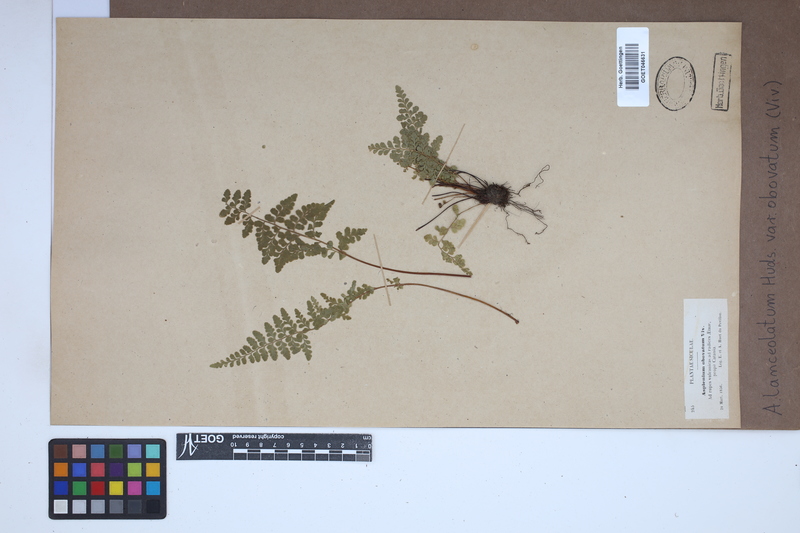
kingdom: Plantae
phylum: Tracheophyta
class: Polypodiopsida
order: Polypodiales
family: Aspleniaceae
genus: Asplenium
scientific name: Asplenium obovatum
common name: Lanceolate spleenwort
